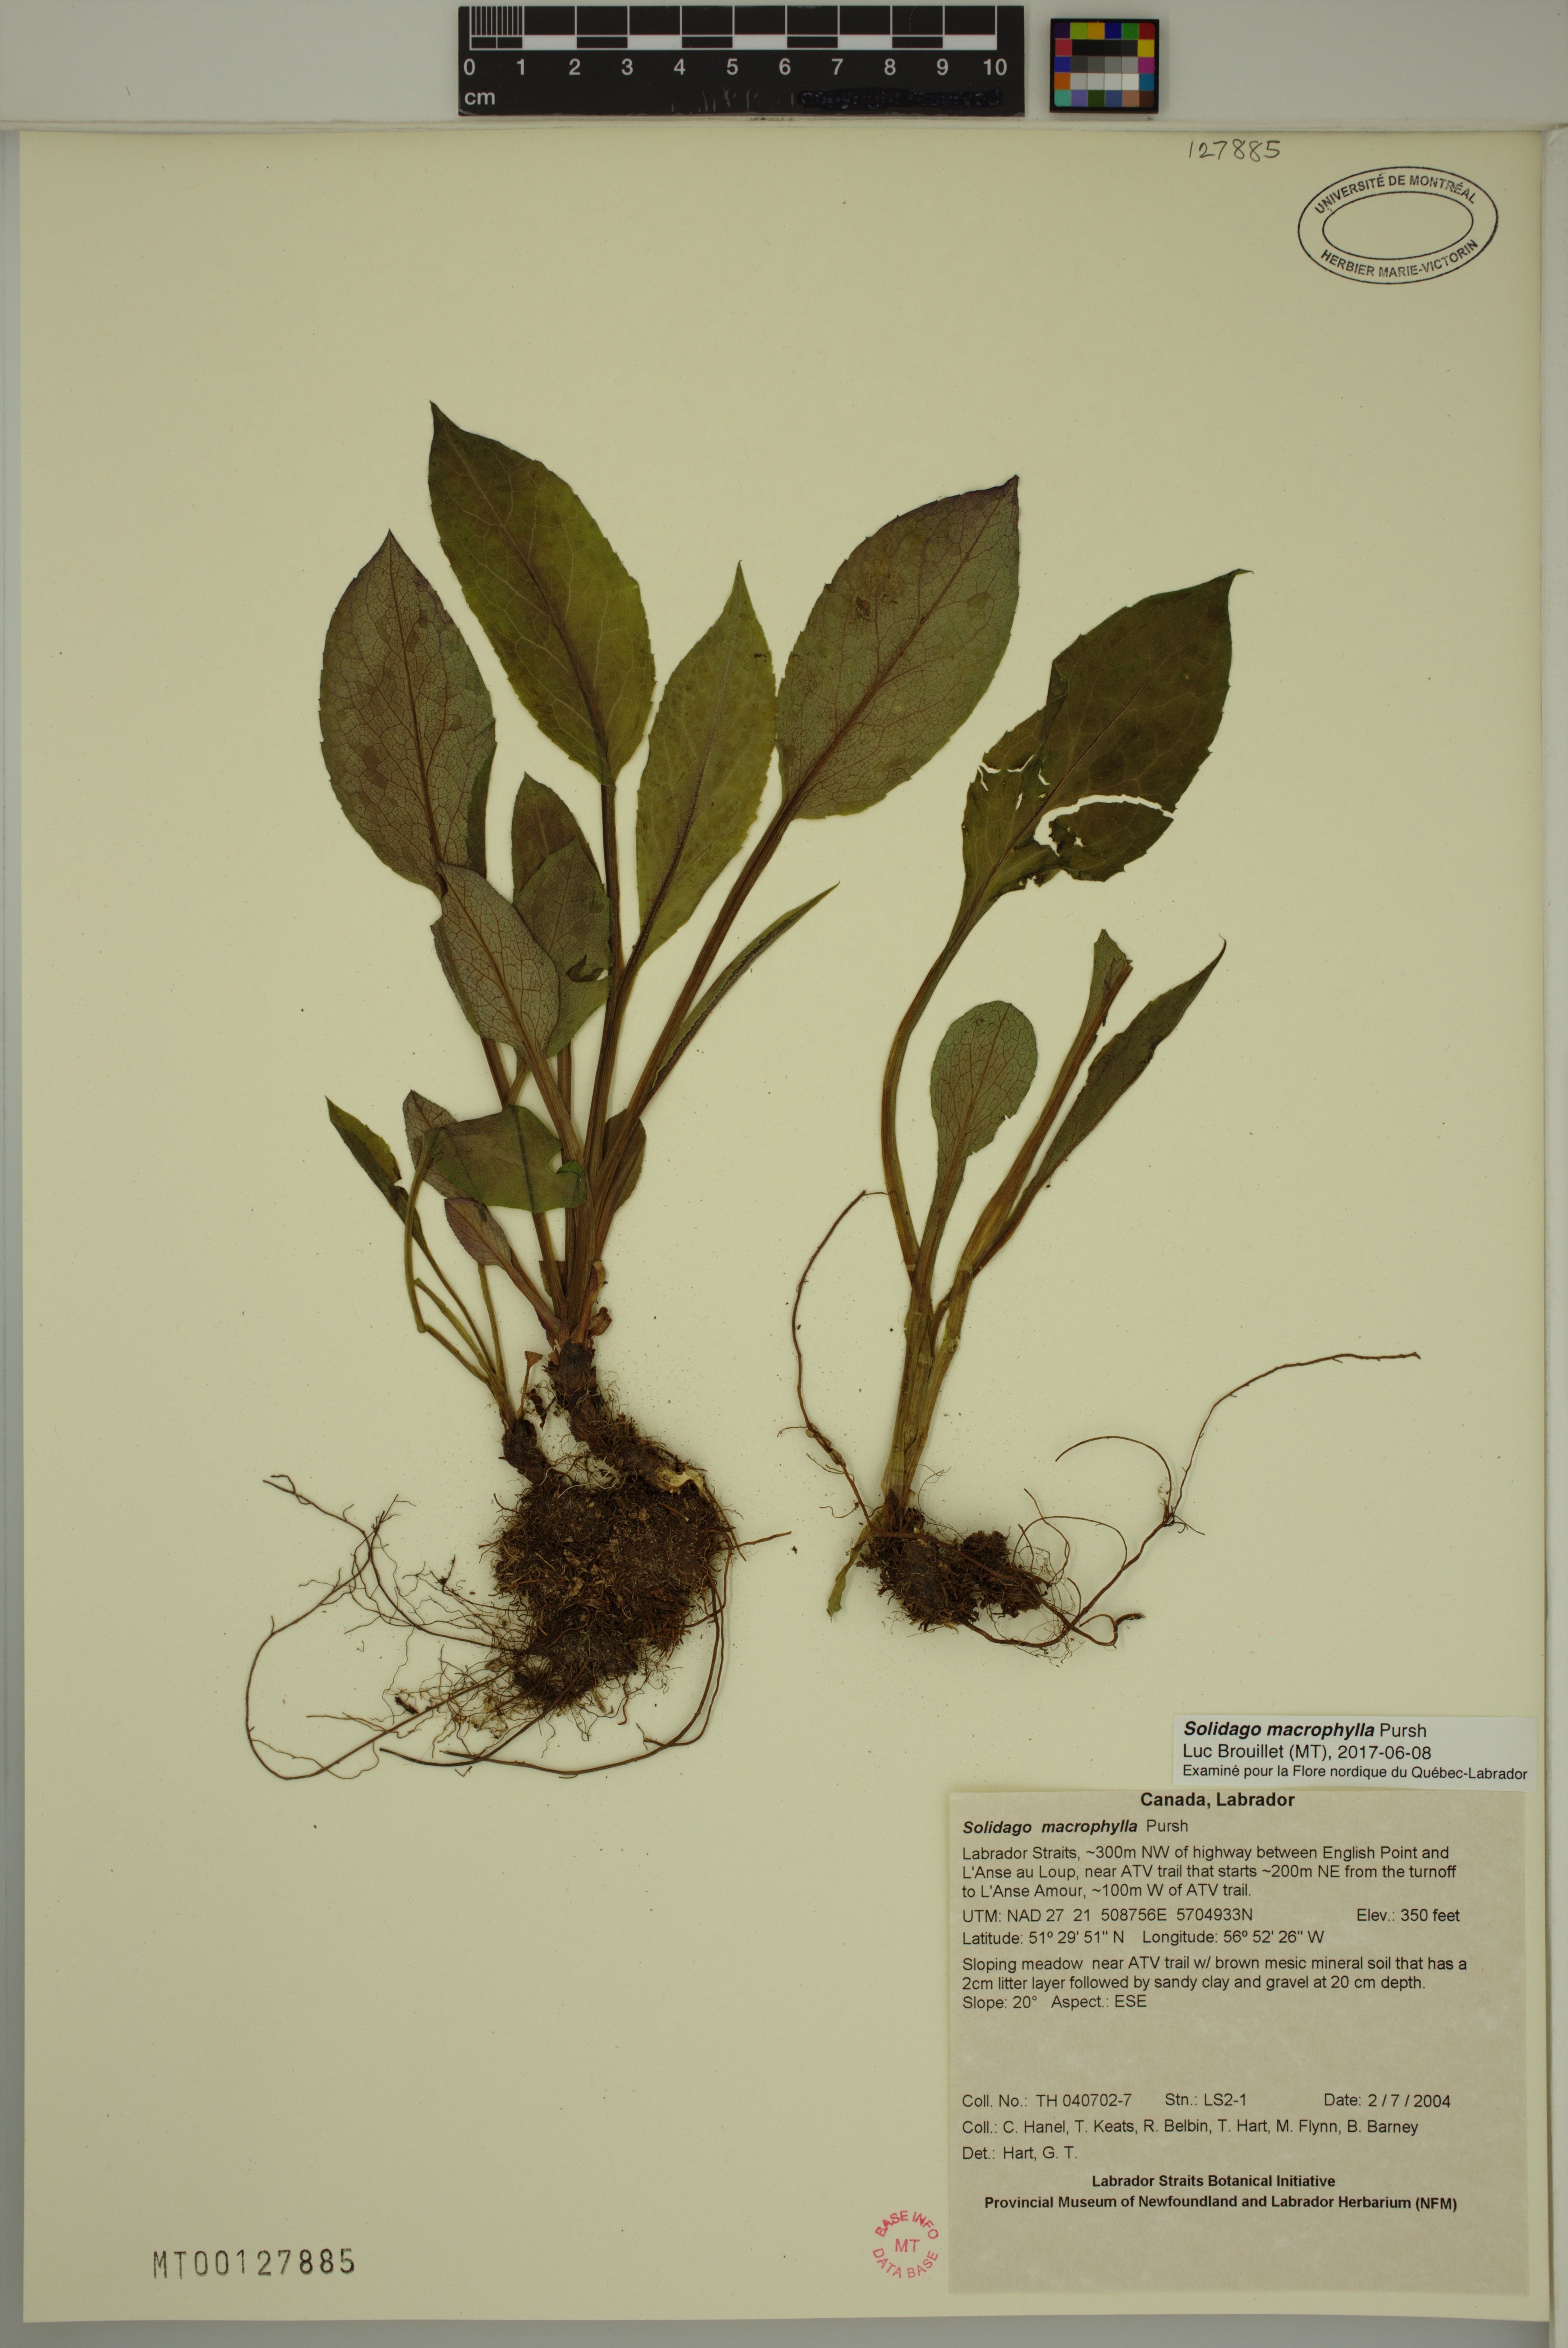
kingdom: Plantae
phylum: Tracheophyta
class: Magnoliopsida
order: Asterales
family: Asteraceae
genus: Solidago
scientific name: Solidago macrophylla
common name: Large-leaved goldenrod
